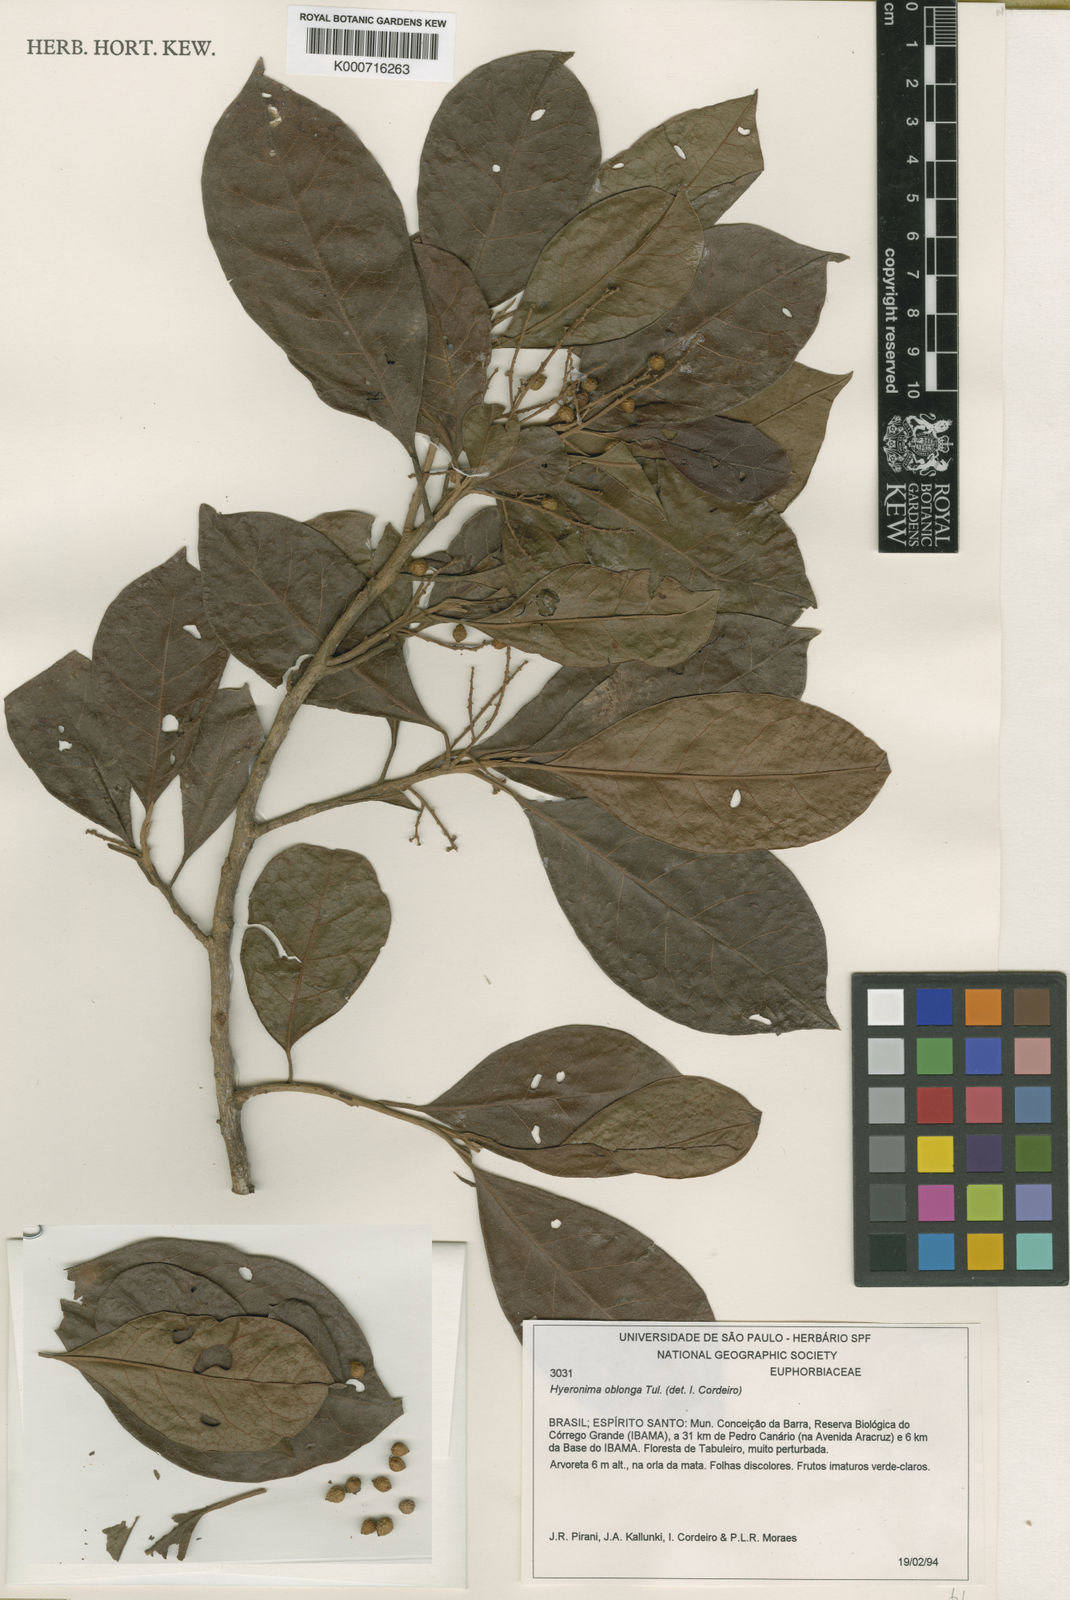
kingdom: Plantae
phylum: Tracheophyta
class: Magnoliopsida
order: Malpighiales
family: Phyllanthaceae
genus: Hieronyma
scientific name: Hieronyma
